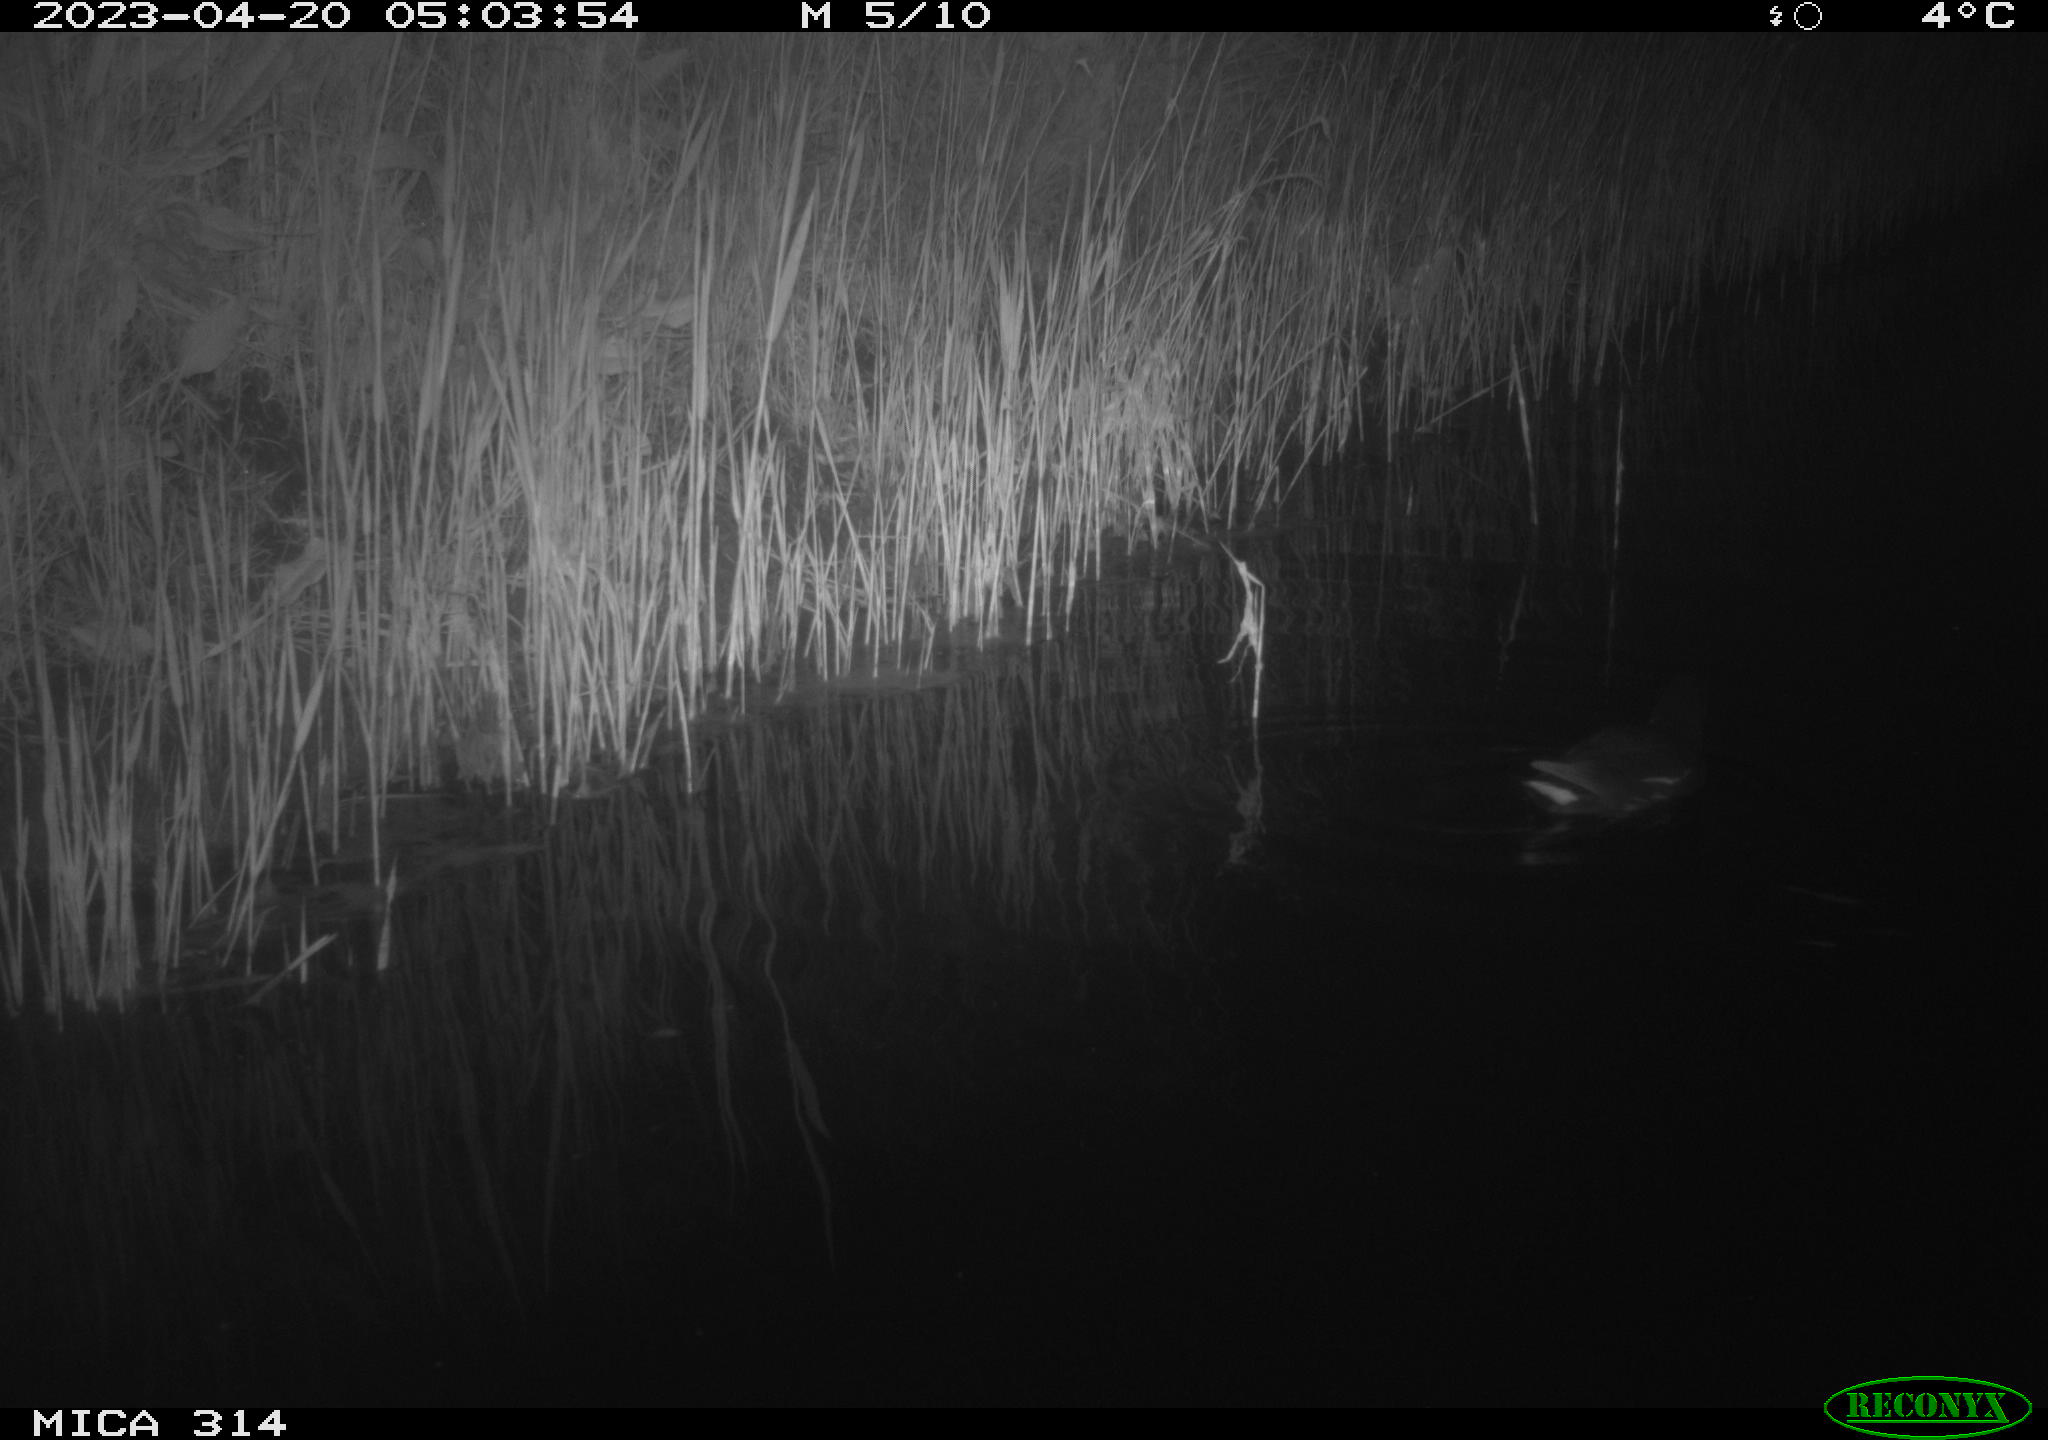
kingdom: Animalia
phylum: Chordata
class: Aves
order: Gruiformes
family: Rallidae
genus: Gallinula
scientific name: Gallinula chloropus
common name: Common moorhen
